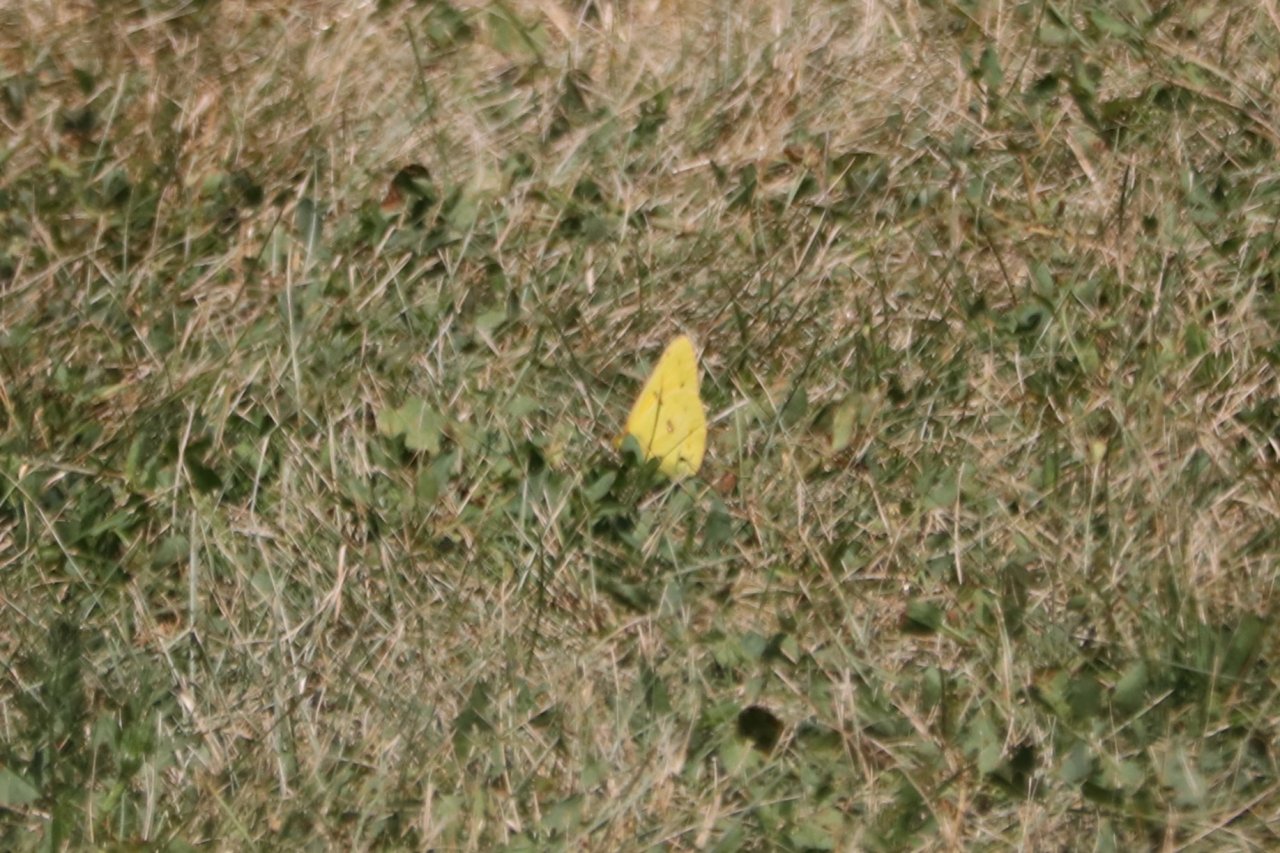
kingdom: Animalia
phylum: Arthropoda
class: Insecta
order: Lepidoptera
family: Pieridae
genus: Colias
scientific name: Colias eurytheme
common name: Orange Sulphur
